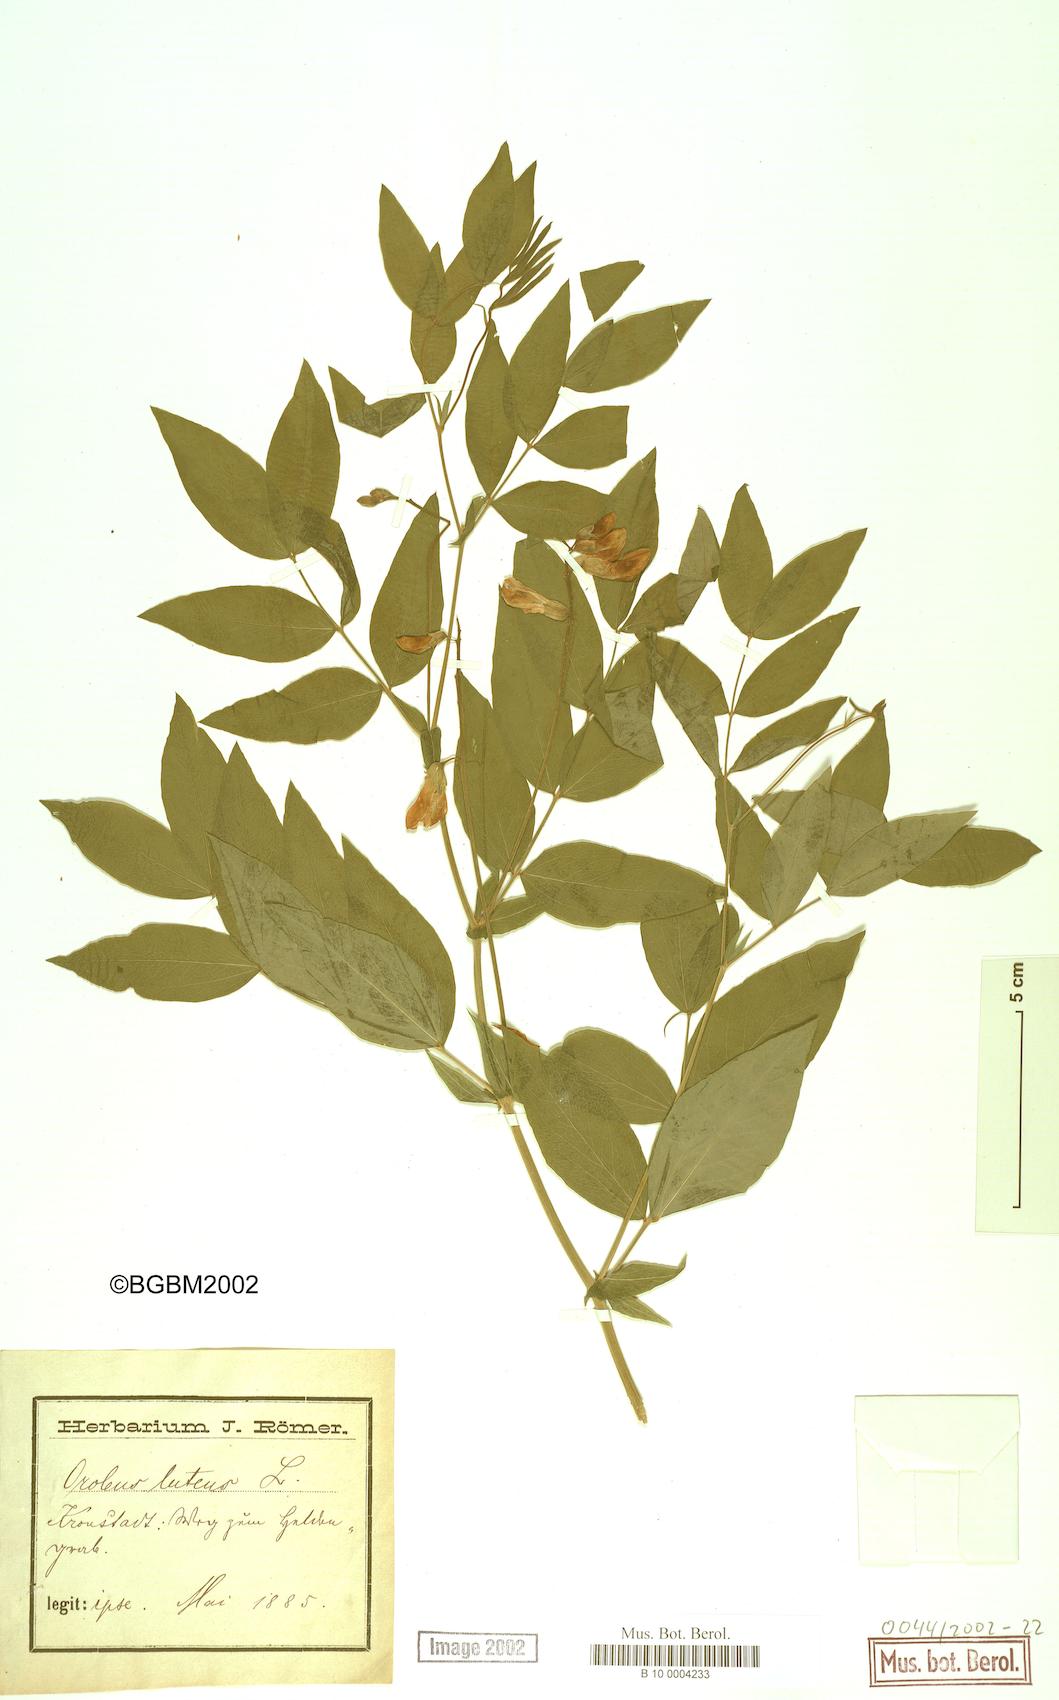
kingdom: Plantae
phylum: Tracheophyta
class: Magnoliopsida
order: Fabales
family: Fabaceae
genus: Lathyrus
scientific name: Lathyrus gmelinii
